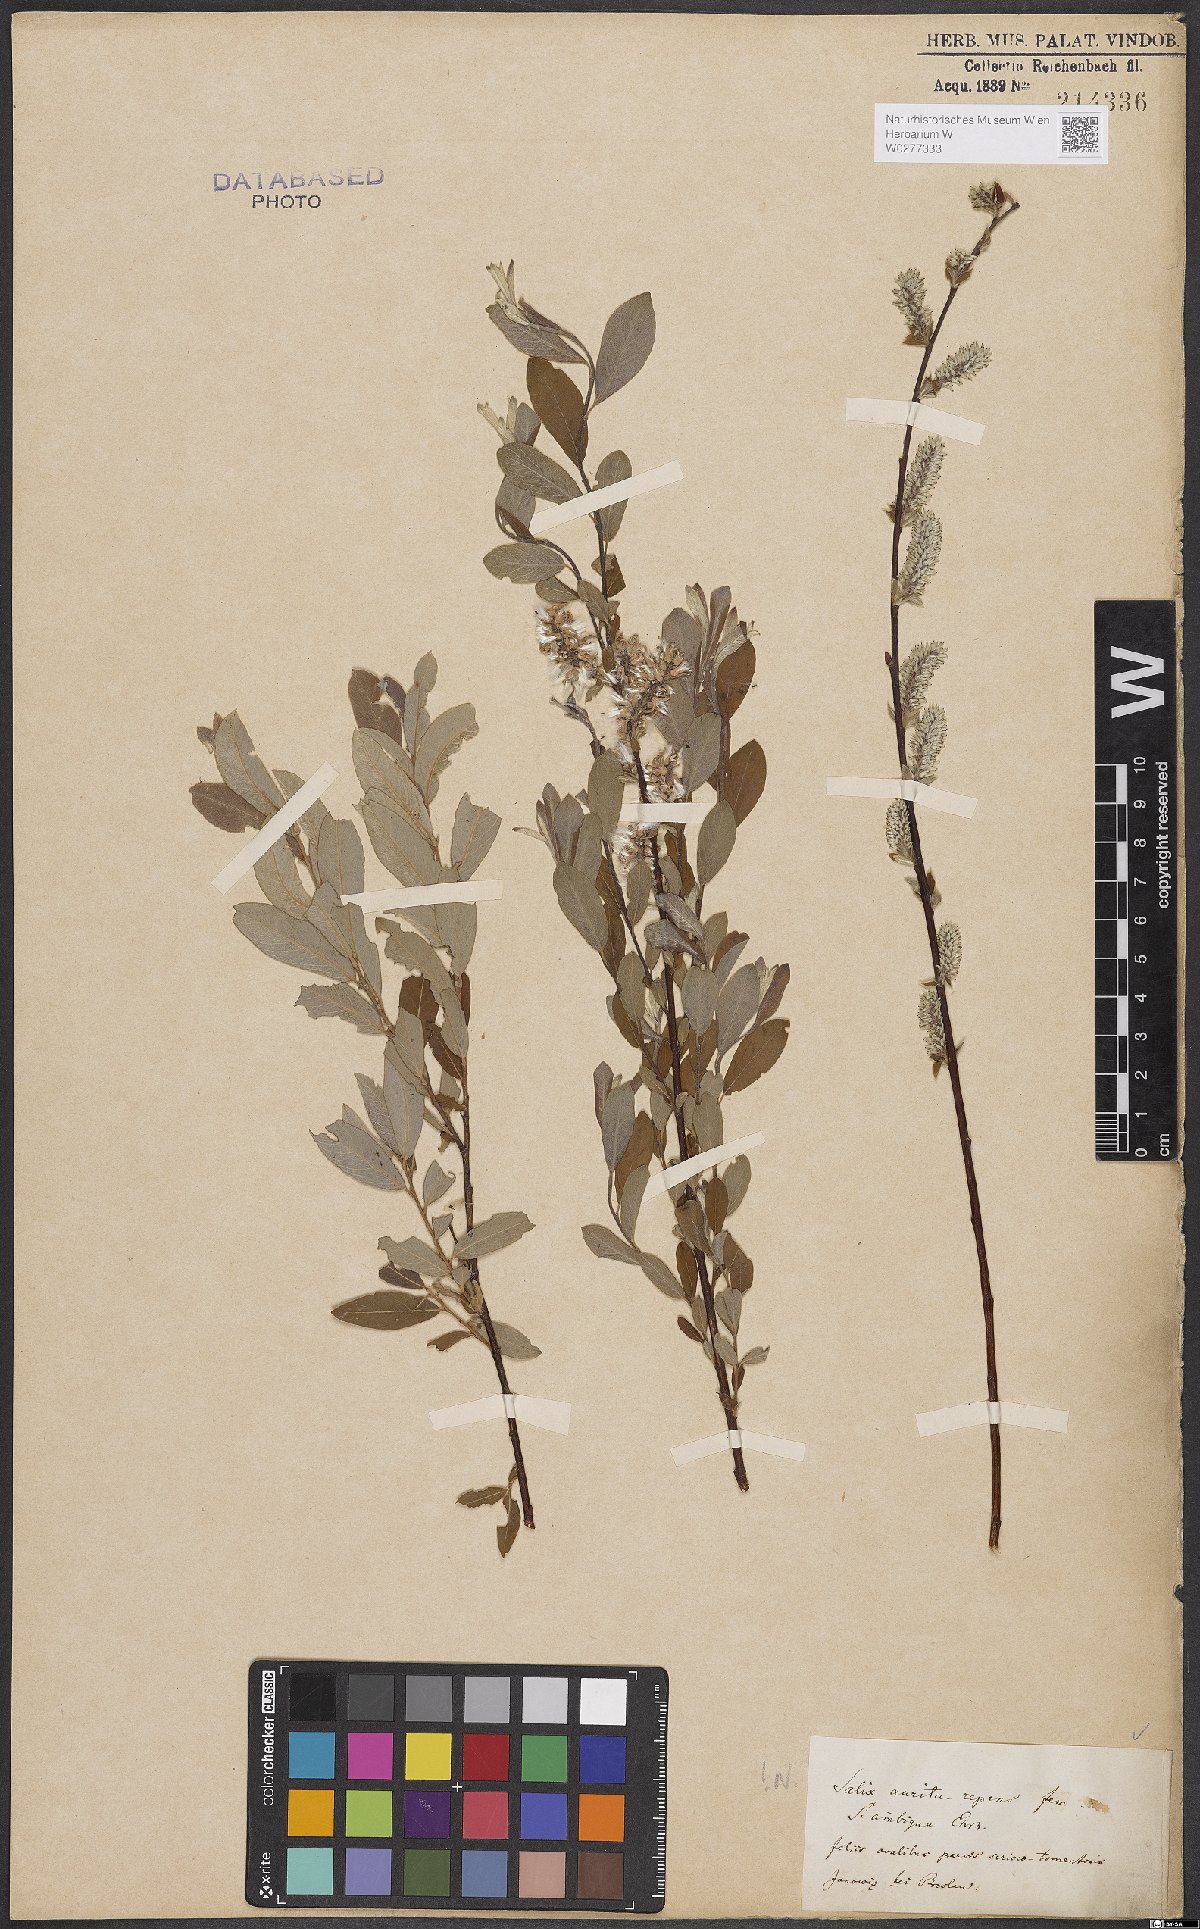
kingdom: Plantae
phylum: Tracheophyta
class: Magnoliopsida
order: Malpighiales
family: Salicaceae
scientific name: Salicaceae
